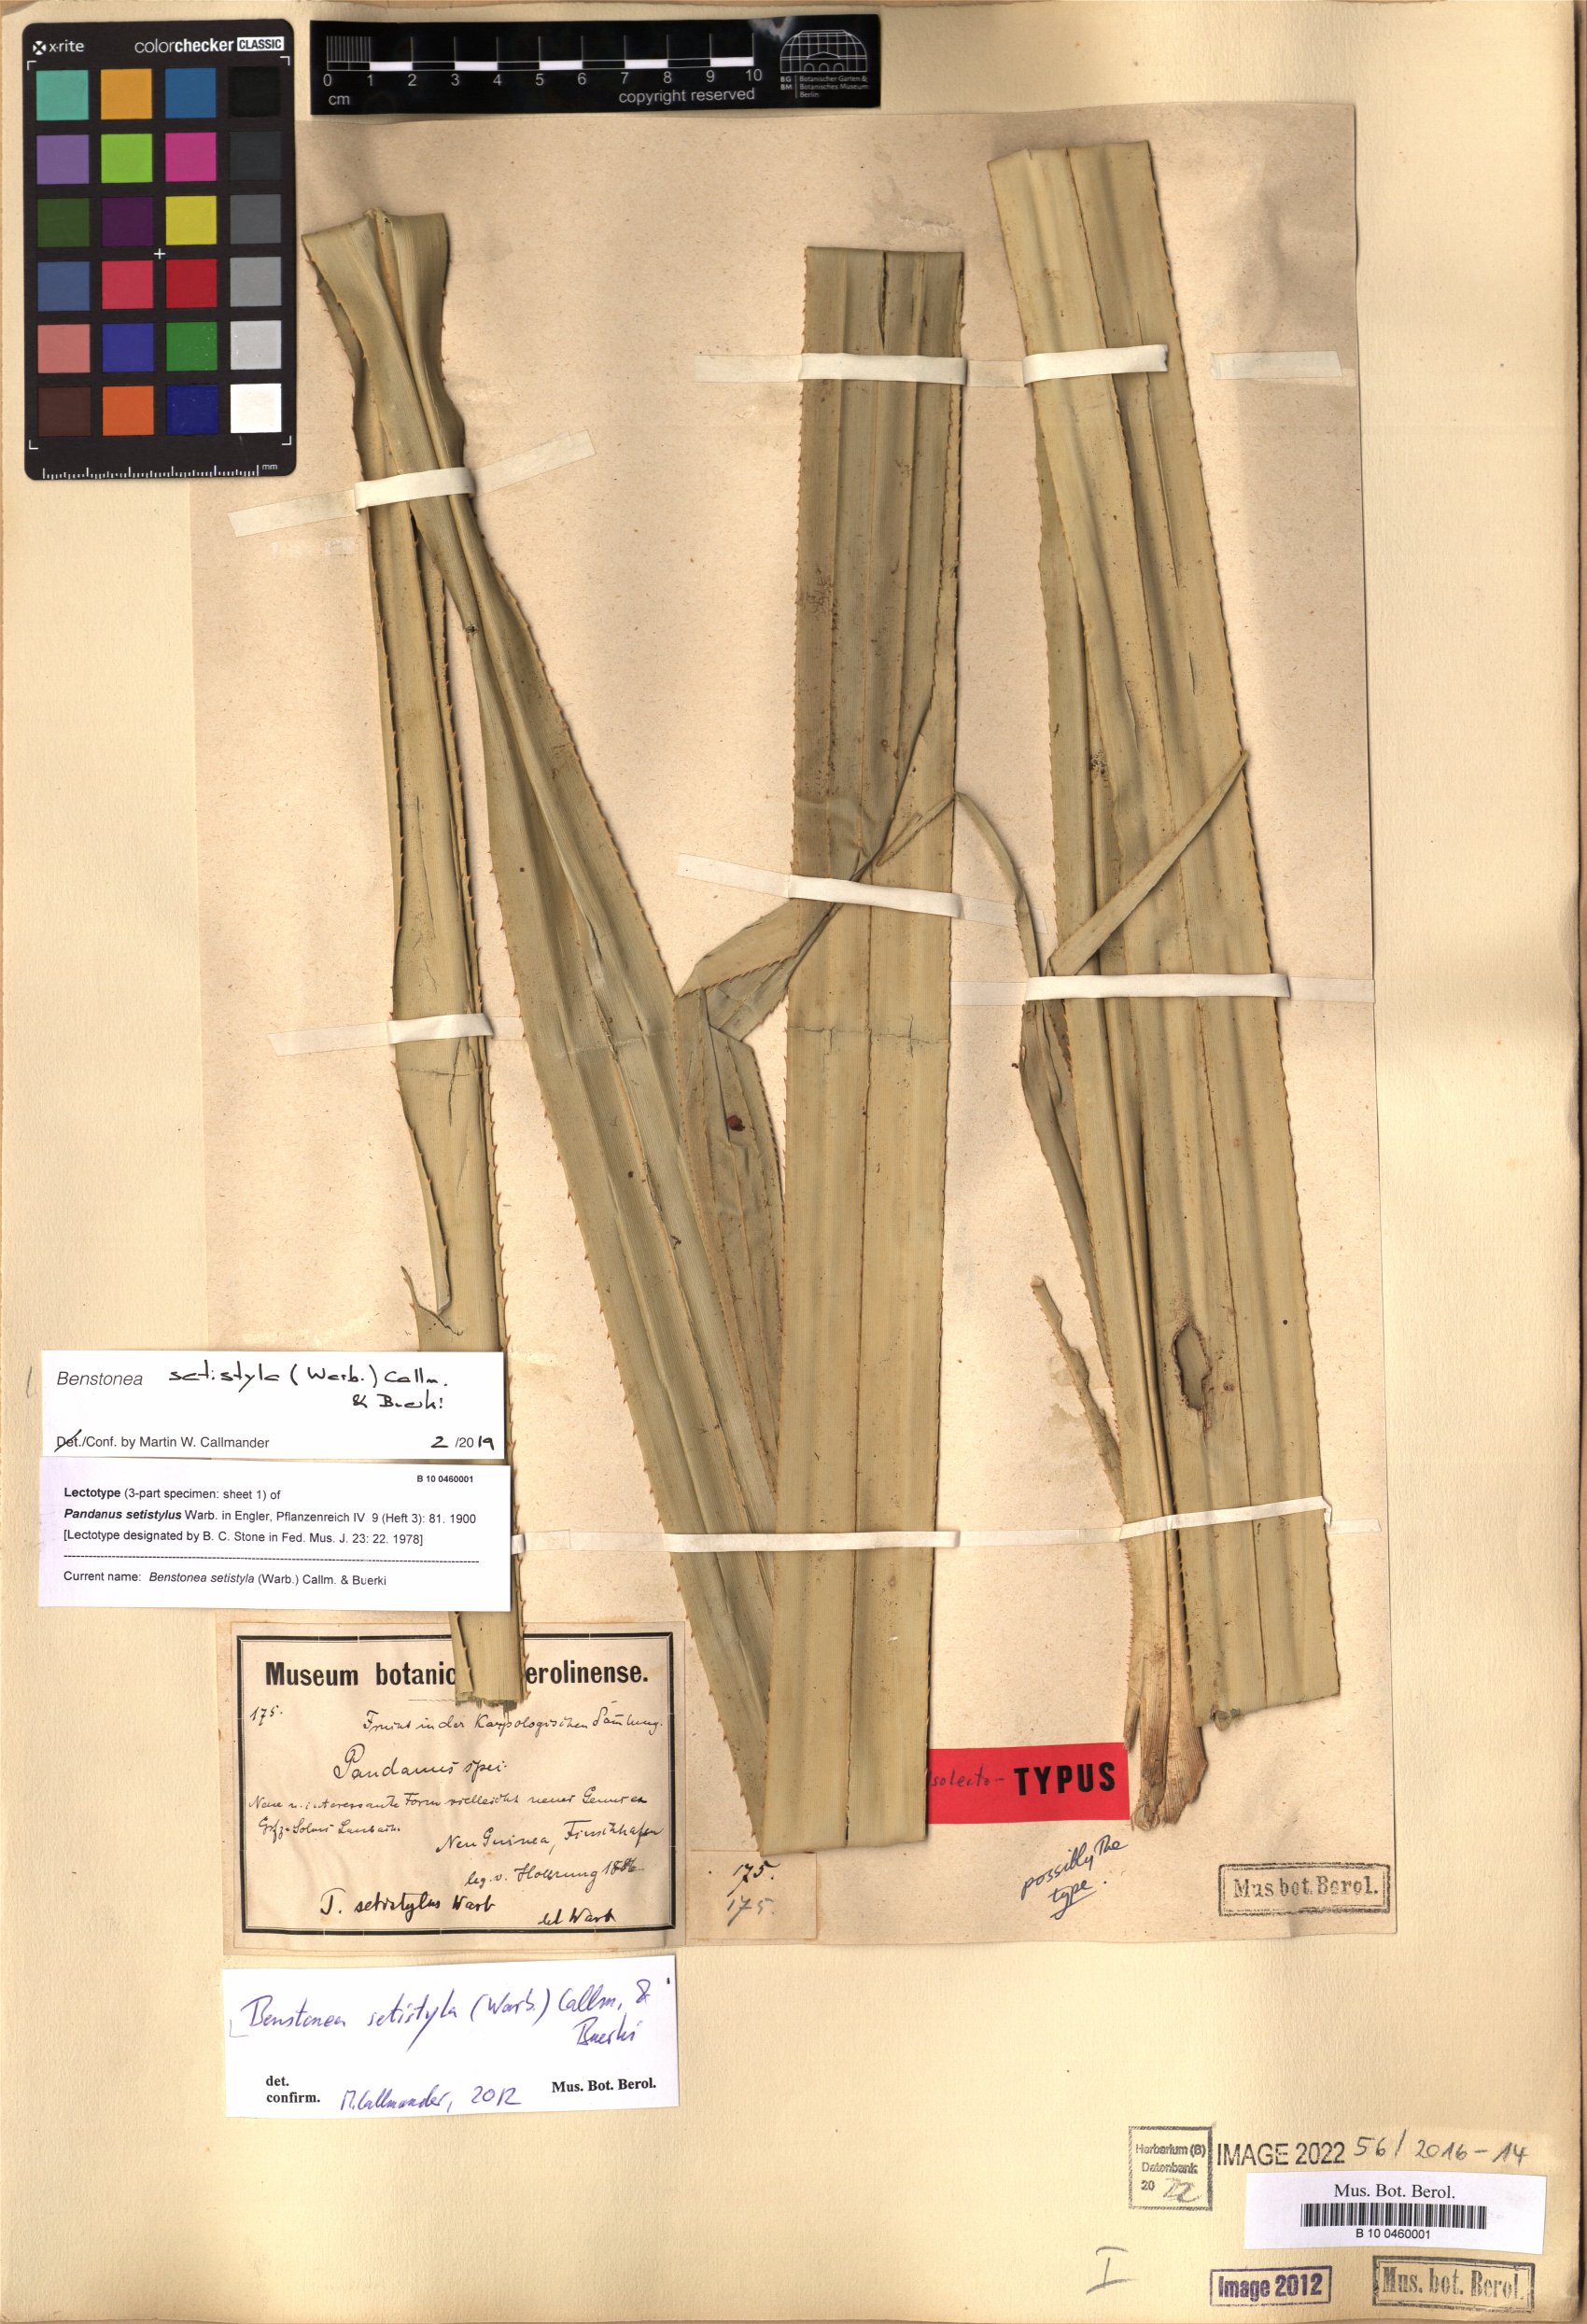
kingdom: Plantae
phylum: Tracheophyta
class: Liliopsida
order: Pandanales
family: Pandanaceae
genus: Benstonea
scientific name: Benstonea setistyla
